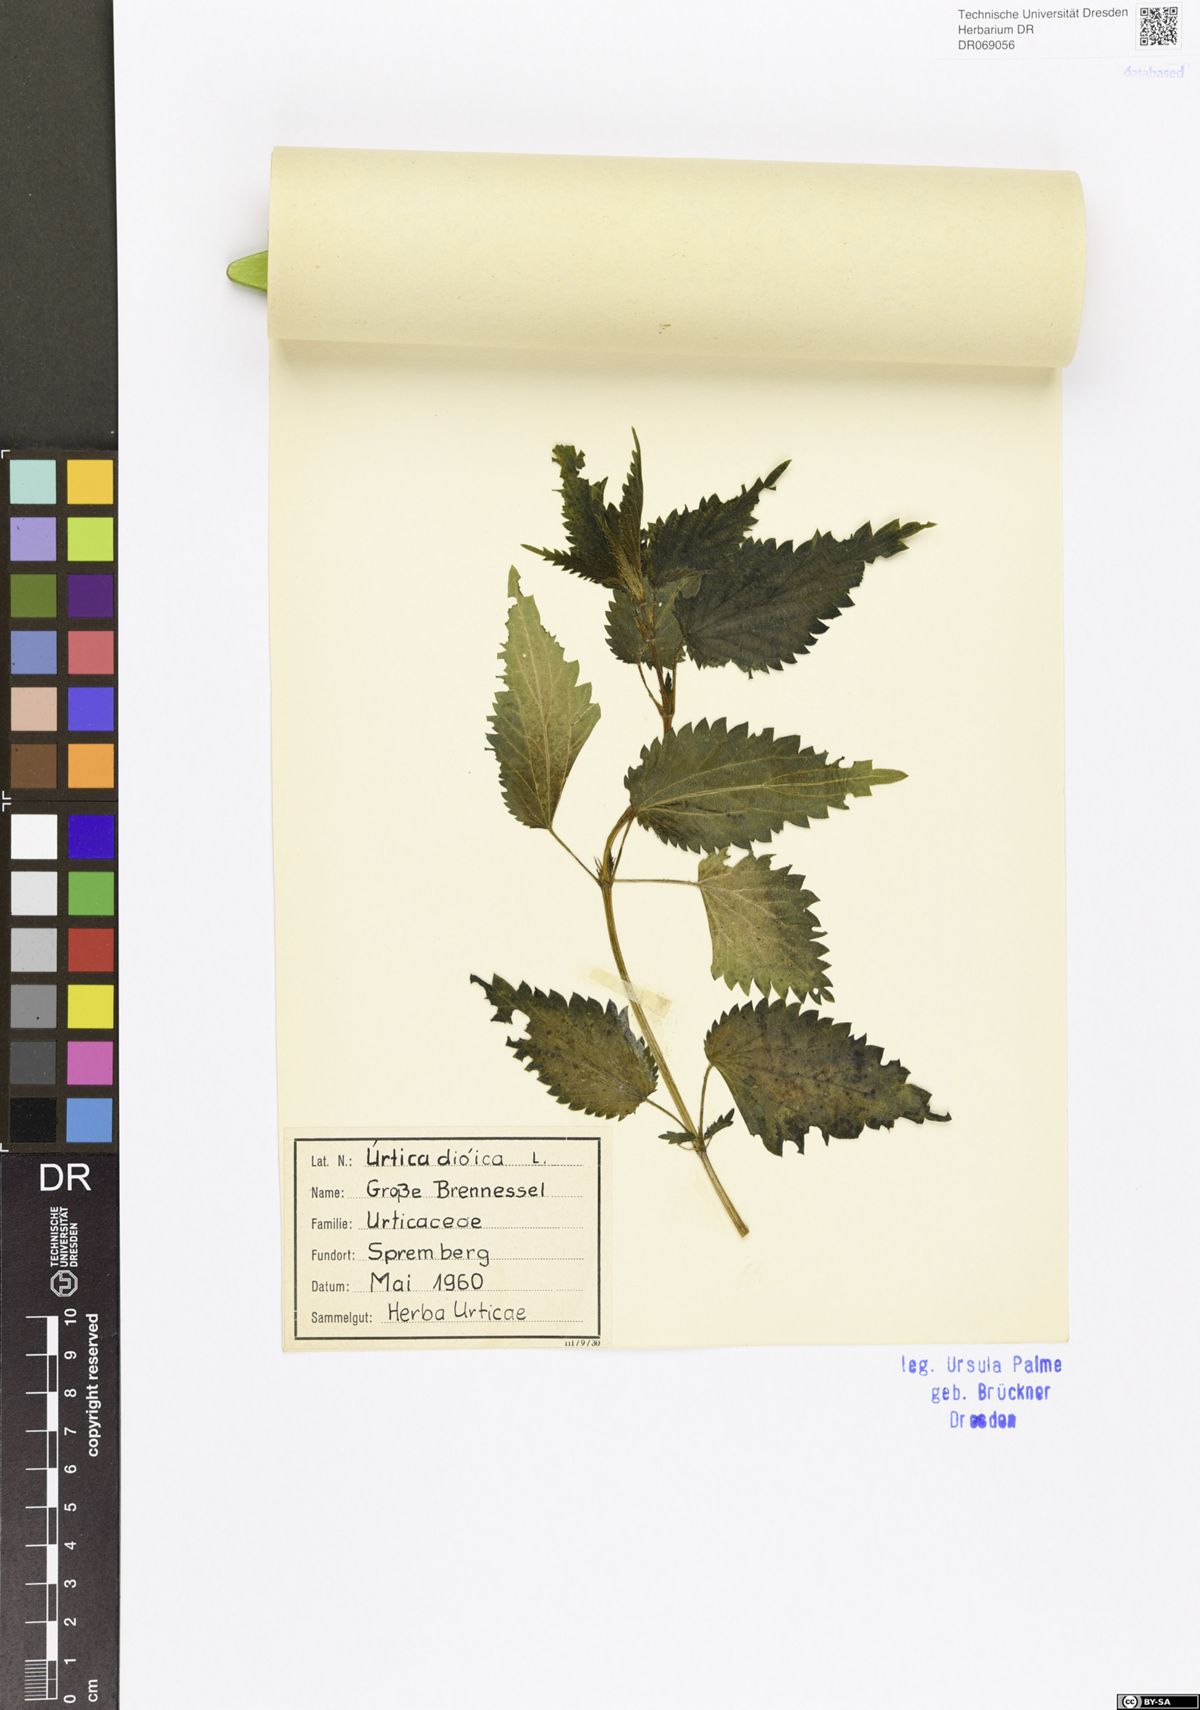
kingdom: Plantae
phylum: Tracheophyta
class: Magnoliopsida
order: Rosales
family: Urticaceae
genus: Urtica
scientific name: Urtica dioica
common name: Common nettle
